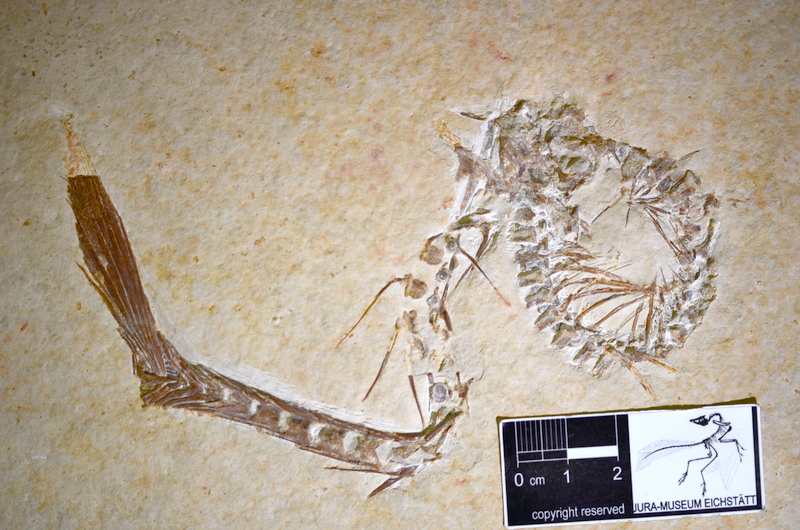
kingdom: Animalia
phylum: Chordata
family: Aspidorhynchidae
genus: Aspidorhynchus
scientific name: Aspidorhynchus acutirostris
